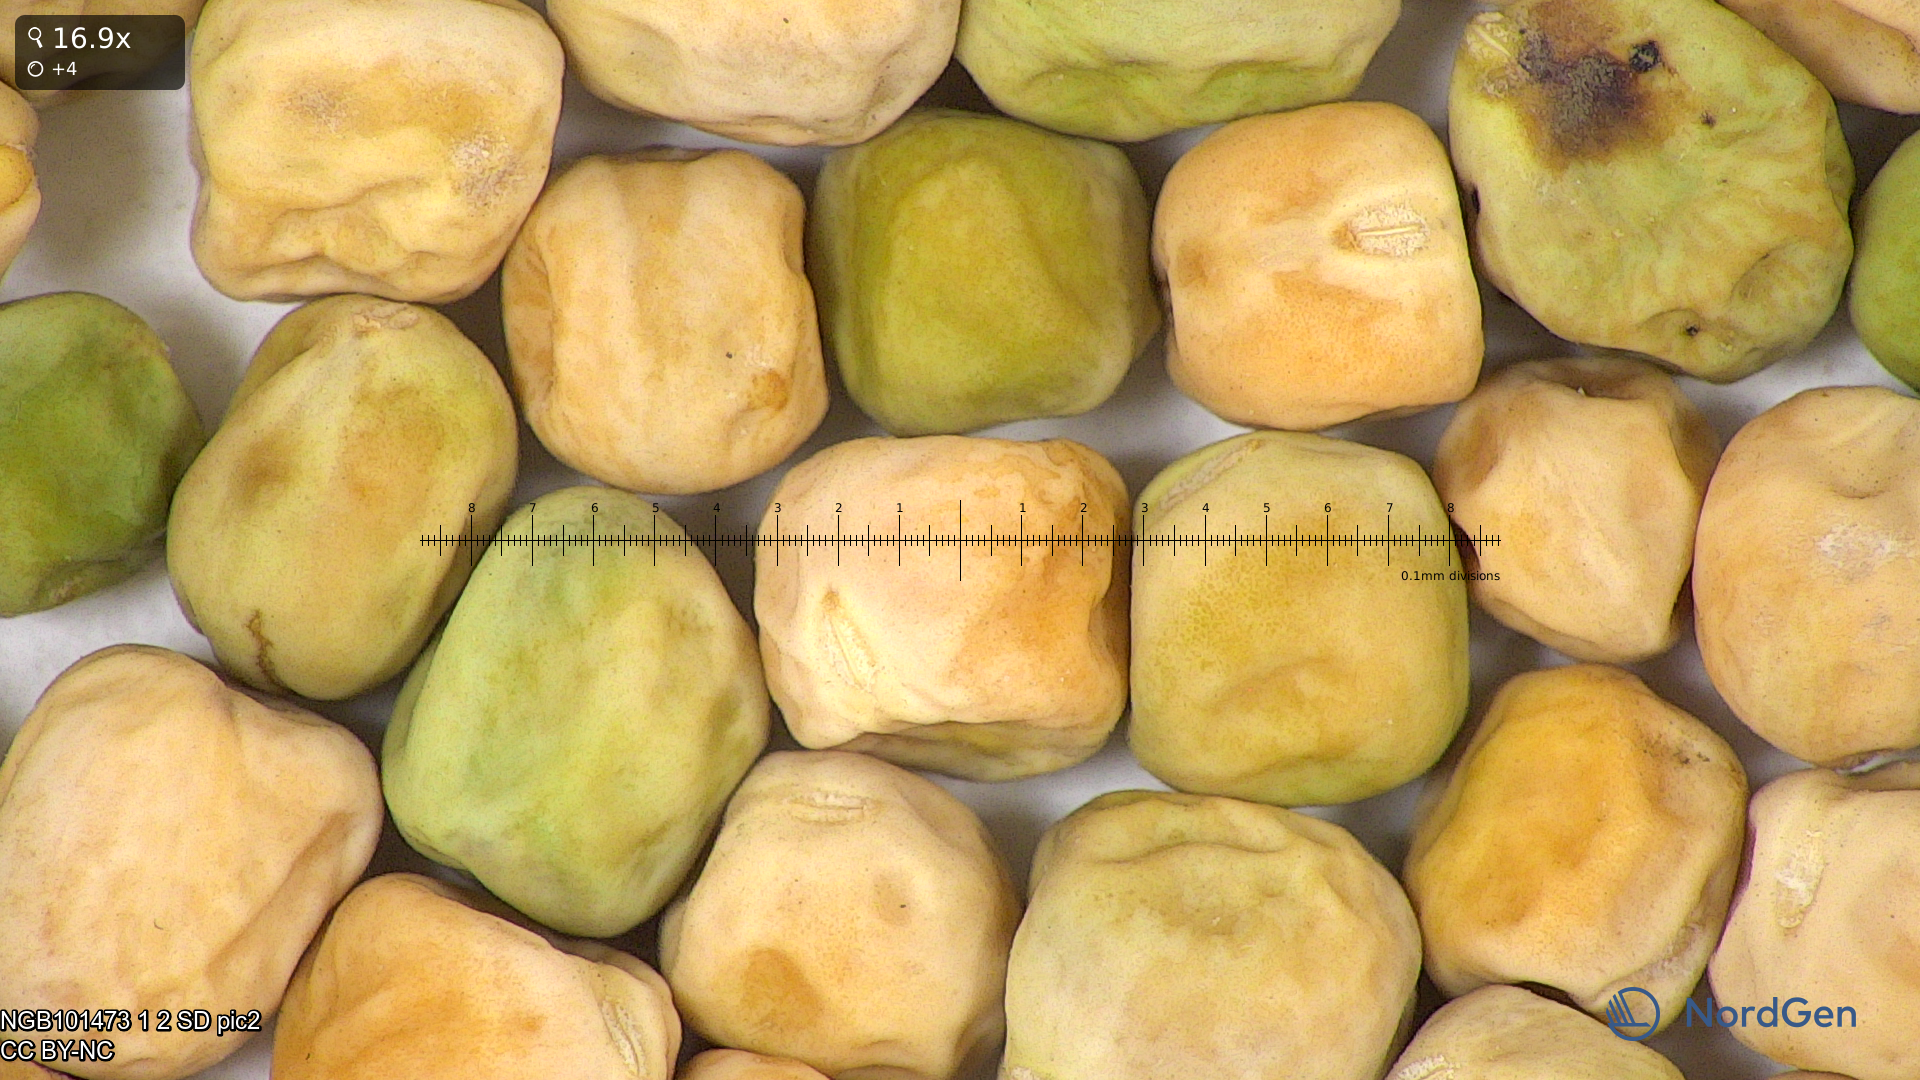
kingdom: Plantae
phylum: Tracheophyta
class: Magnoliopsida
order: Fabales
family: Fabaceae
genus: Lathyrus
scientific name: Lathyrus oleraceus
